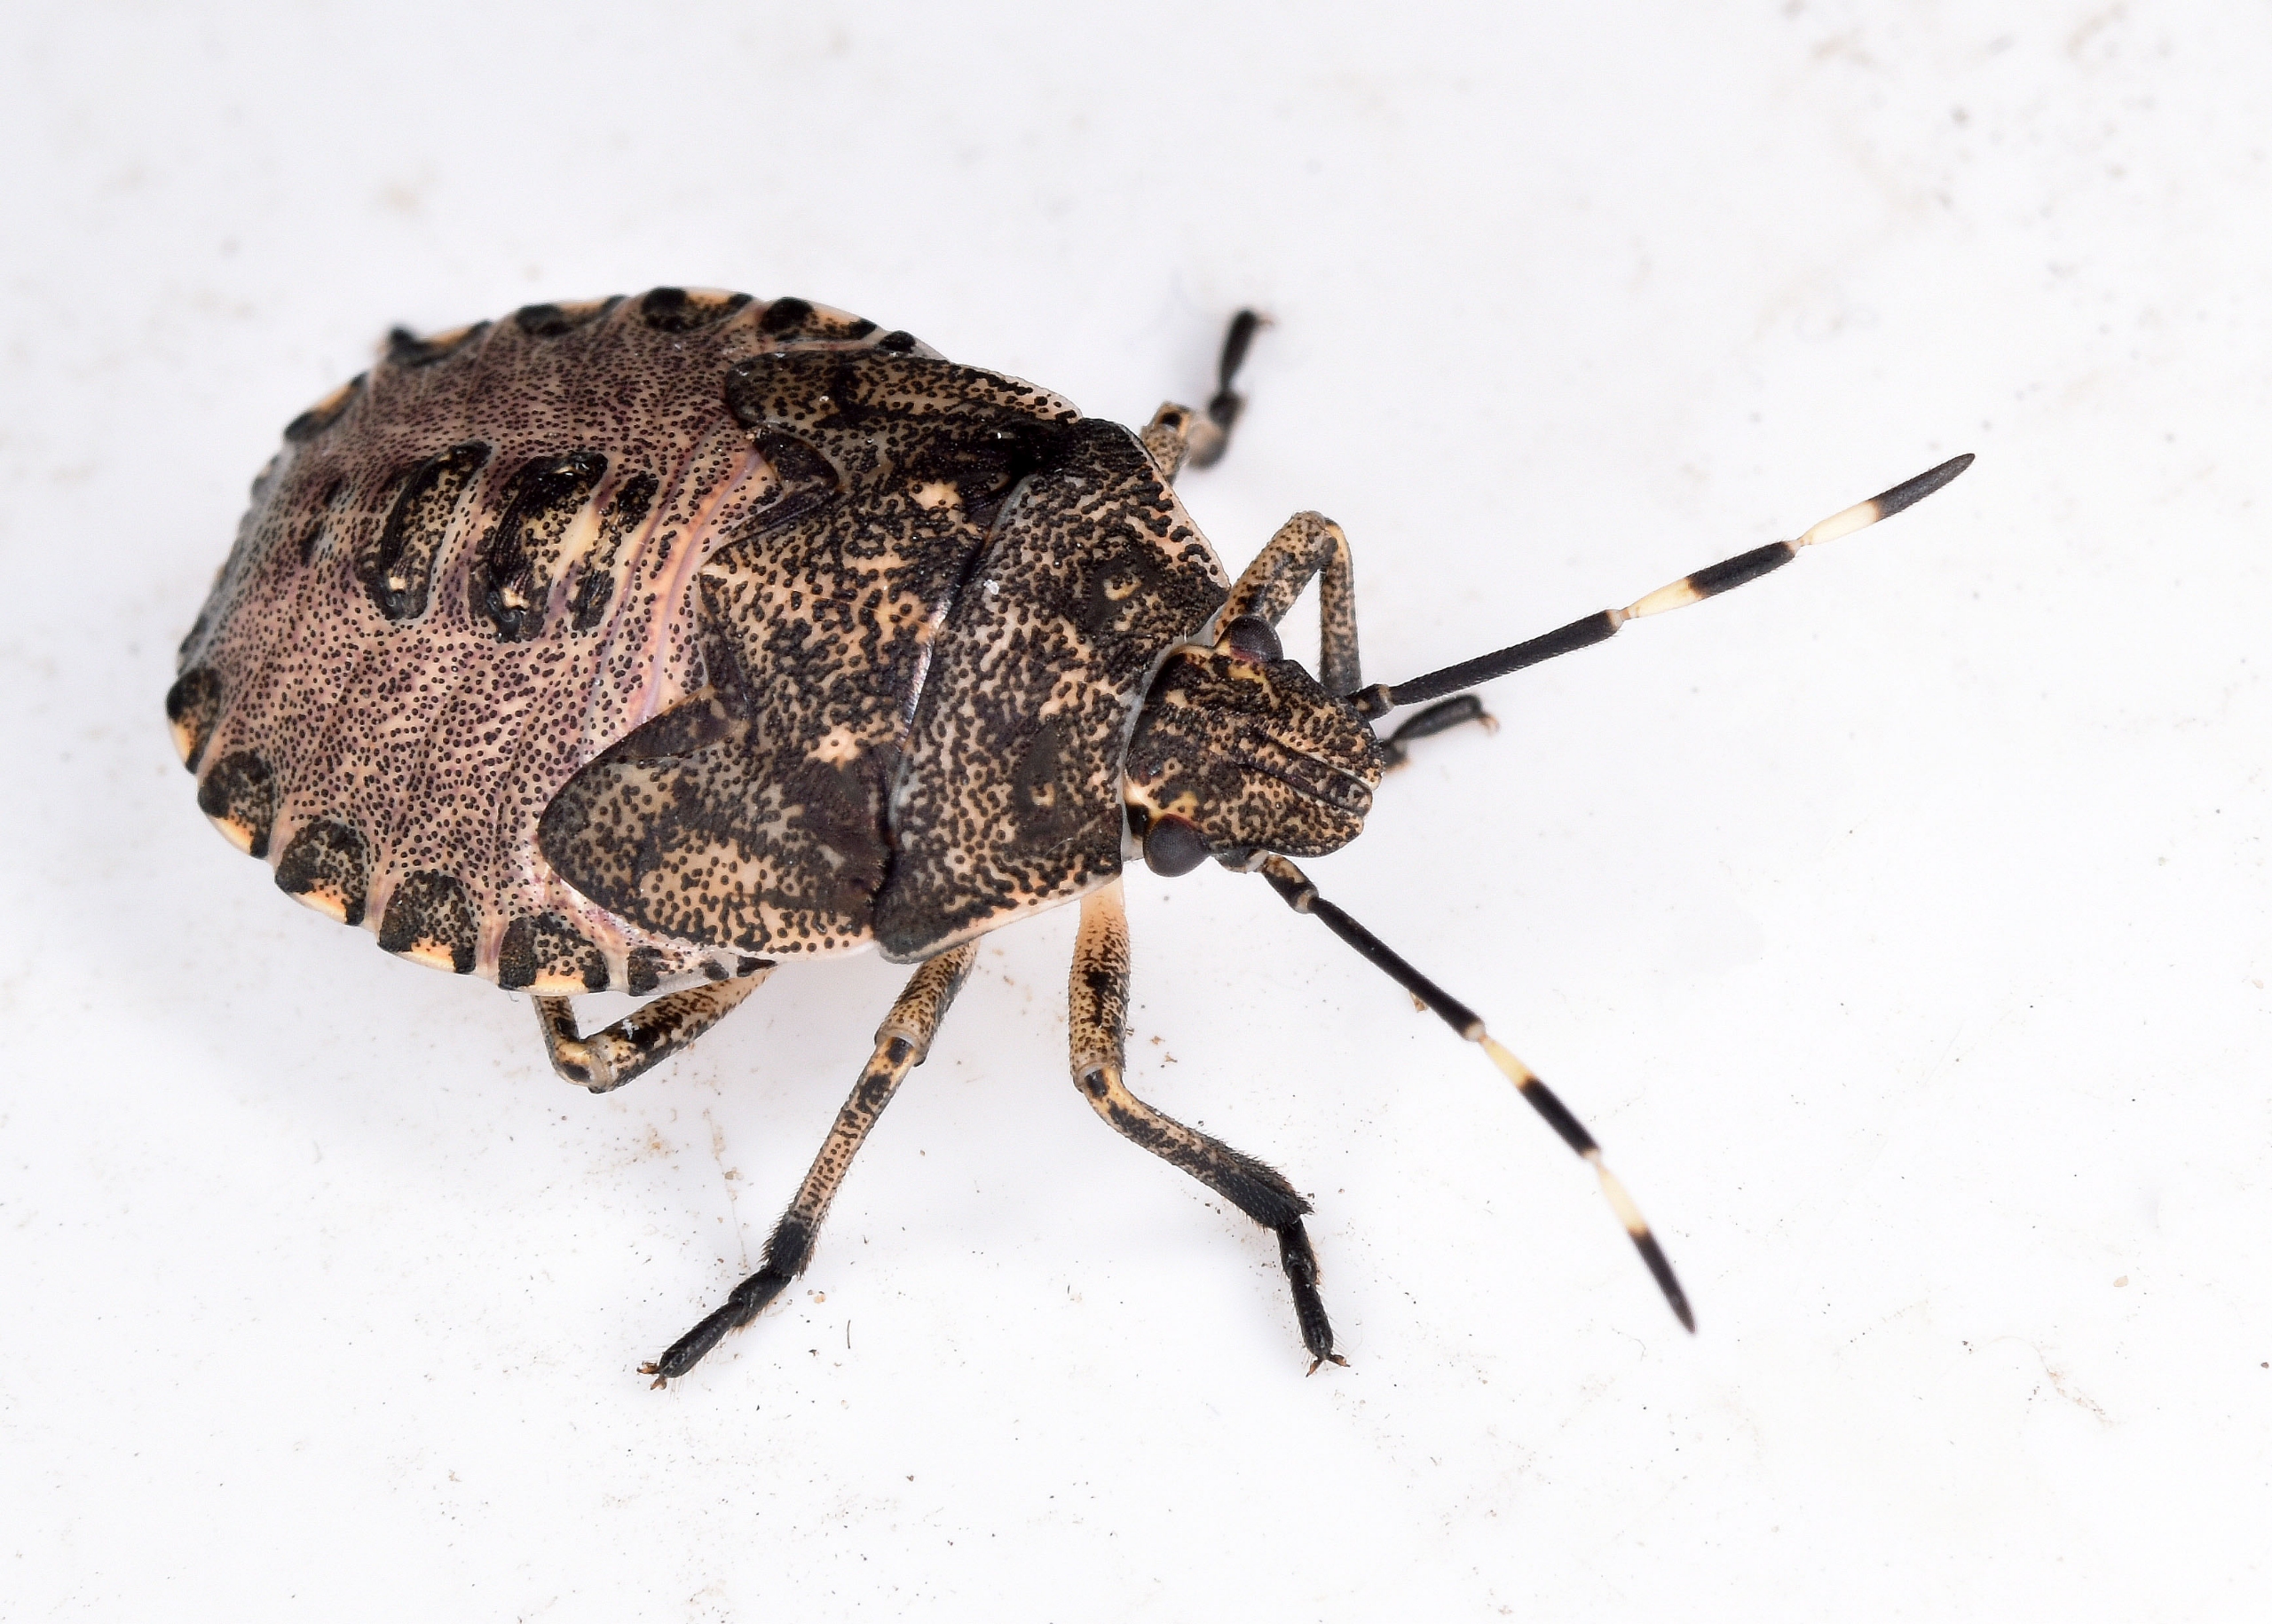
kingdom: Animalia
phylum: Arthropoda
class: Insecta
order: Hemiptera
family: Pentatomidae
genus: Rhaphigaster
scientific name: Rhaphigaster nebulosa
